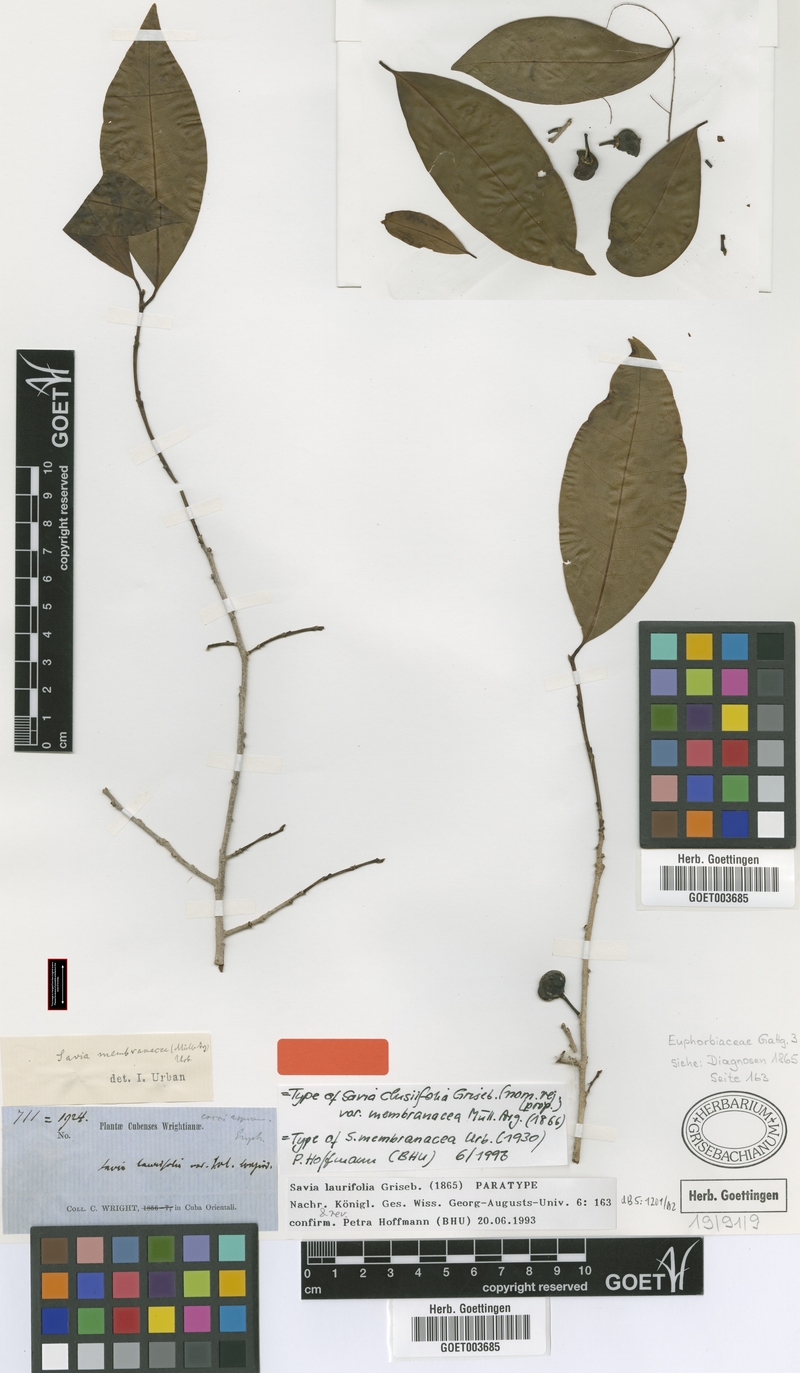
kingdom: Plantae
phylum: Tracheophyta
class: Magnoliopsida
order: Malpighiales
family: Phyllanthaceae
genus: Heterosavia
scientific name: Heterosavia laurifolia
